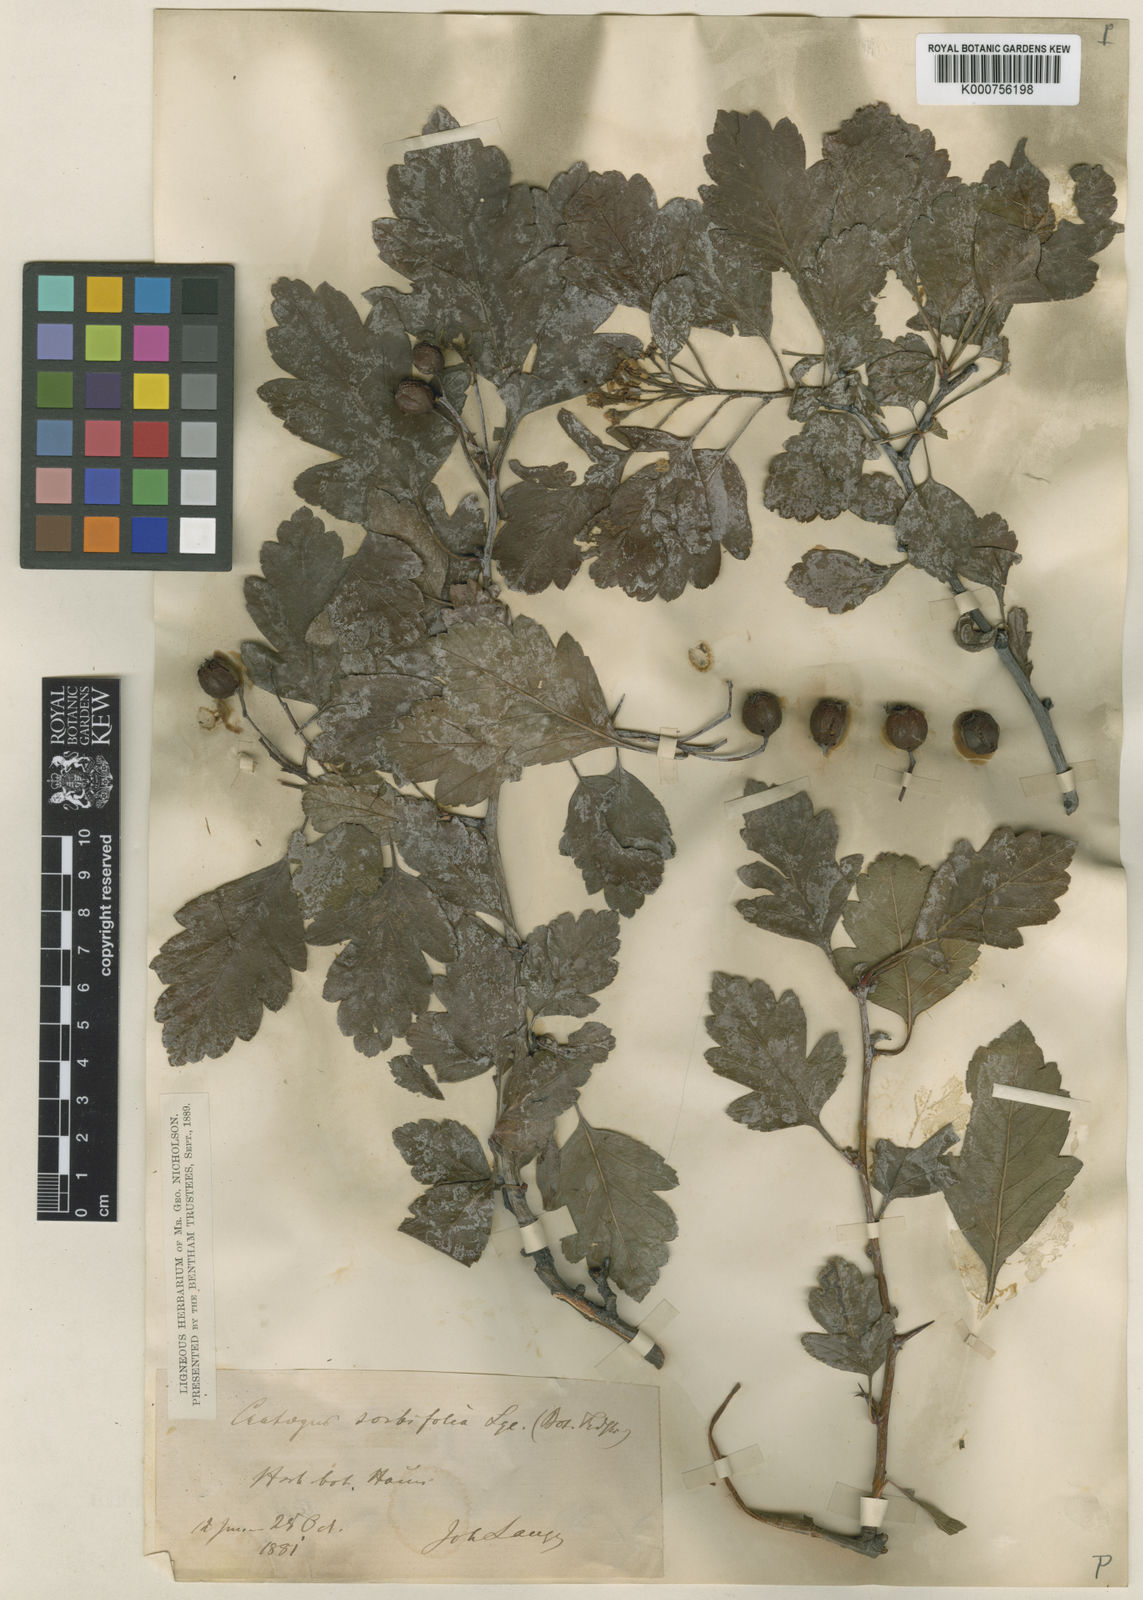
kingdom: Plantae
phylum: Tracheophyta
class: Magnoliopsida
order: Rosales
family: Rosaceae
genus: Aronia
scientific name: Aronia prunifolia
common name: Purple chokeberry
